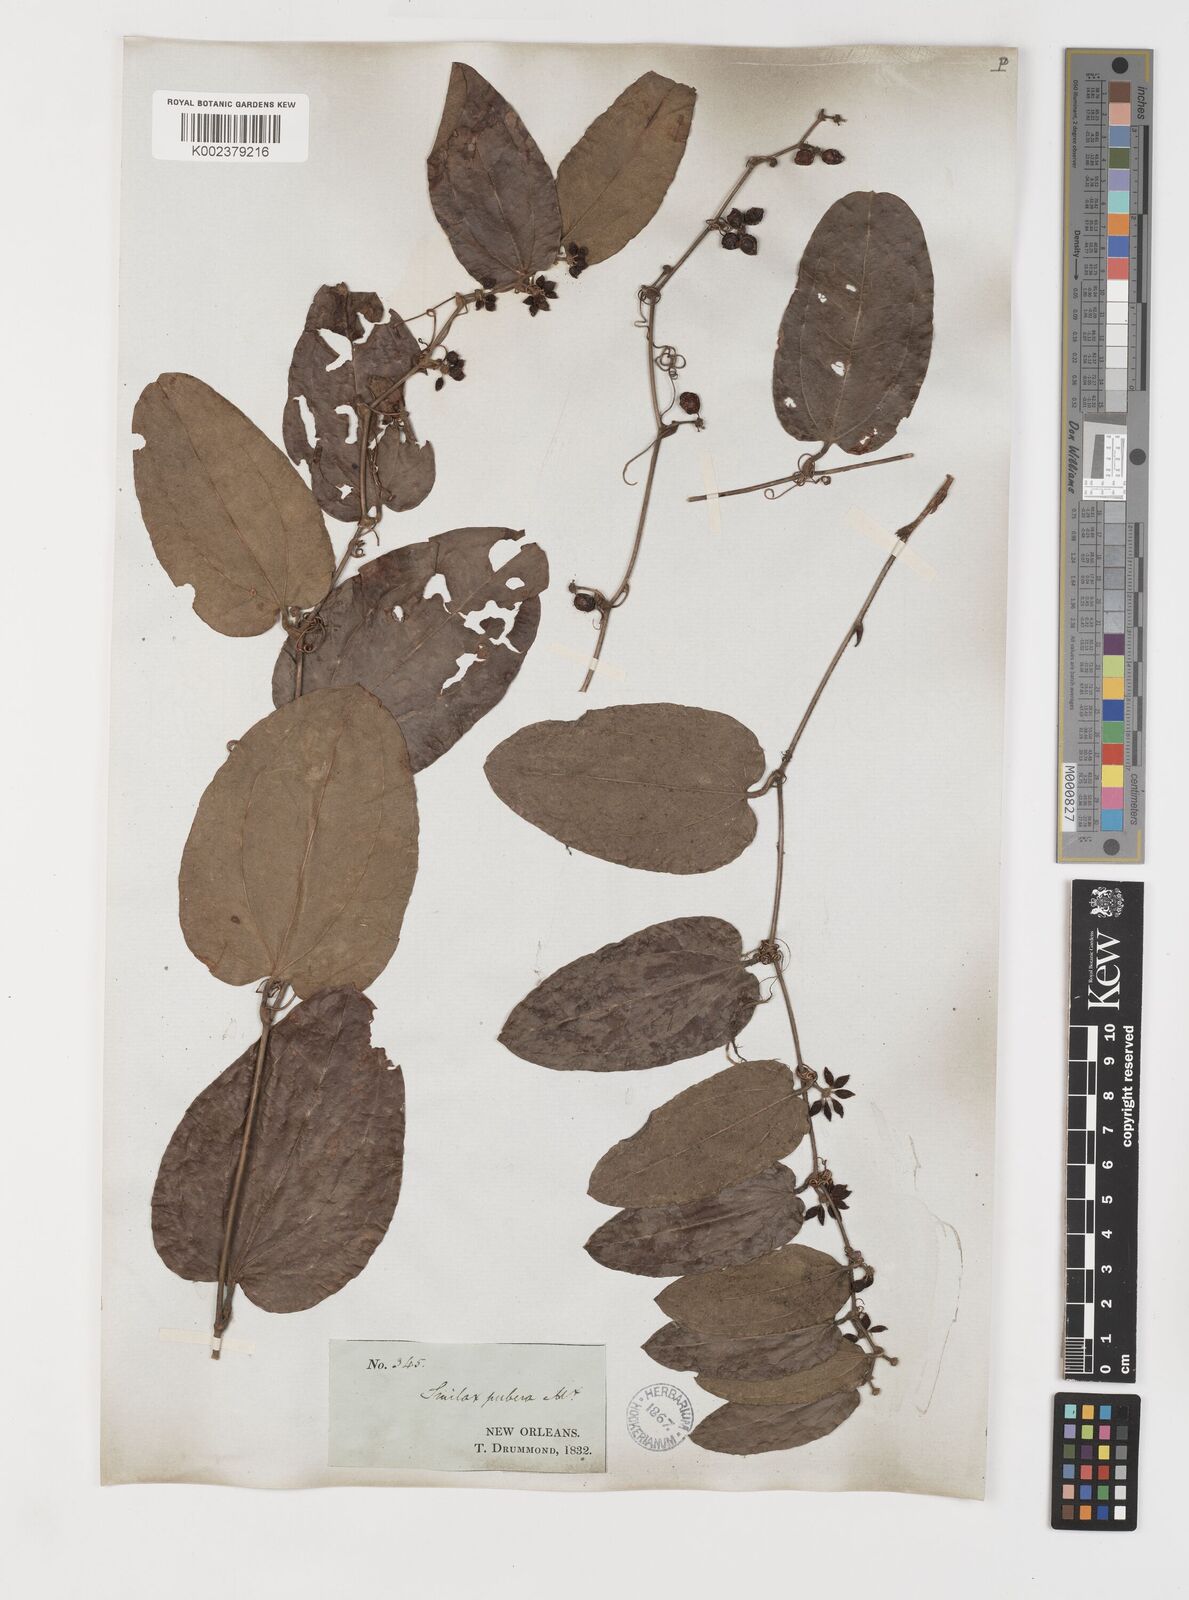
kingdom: Plantae
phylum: Tracheophyta
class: Liliopsida
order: Liliales
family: Smilacaceae
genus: Smilax
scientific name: Smilax pumila
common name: Sarsaparilla-vine
